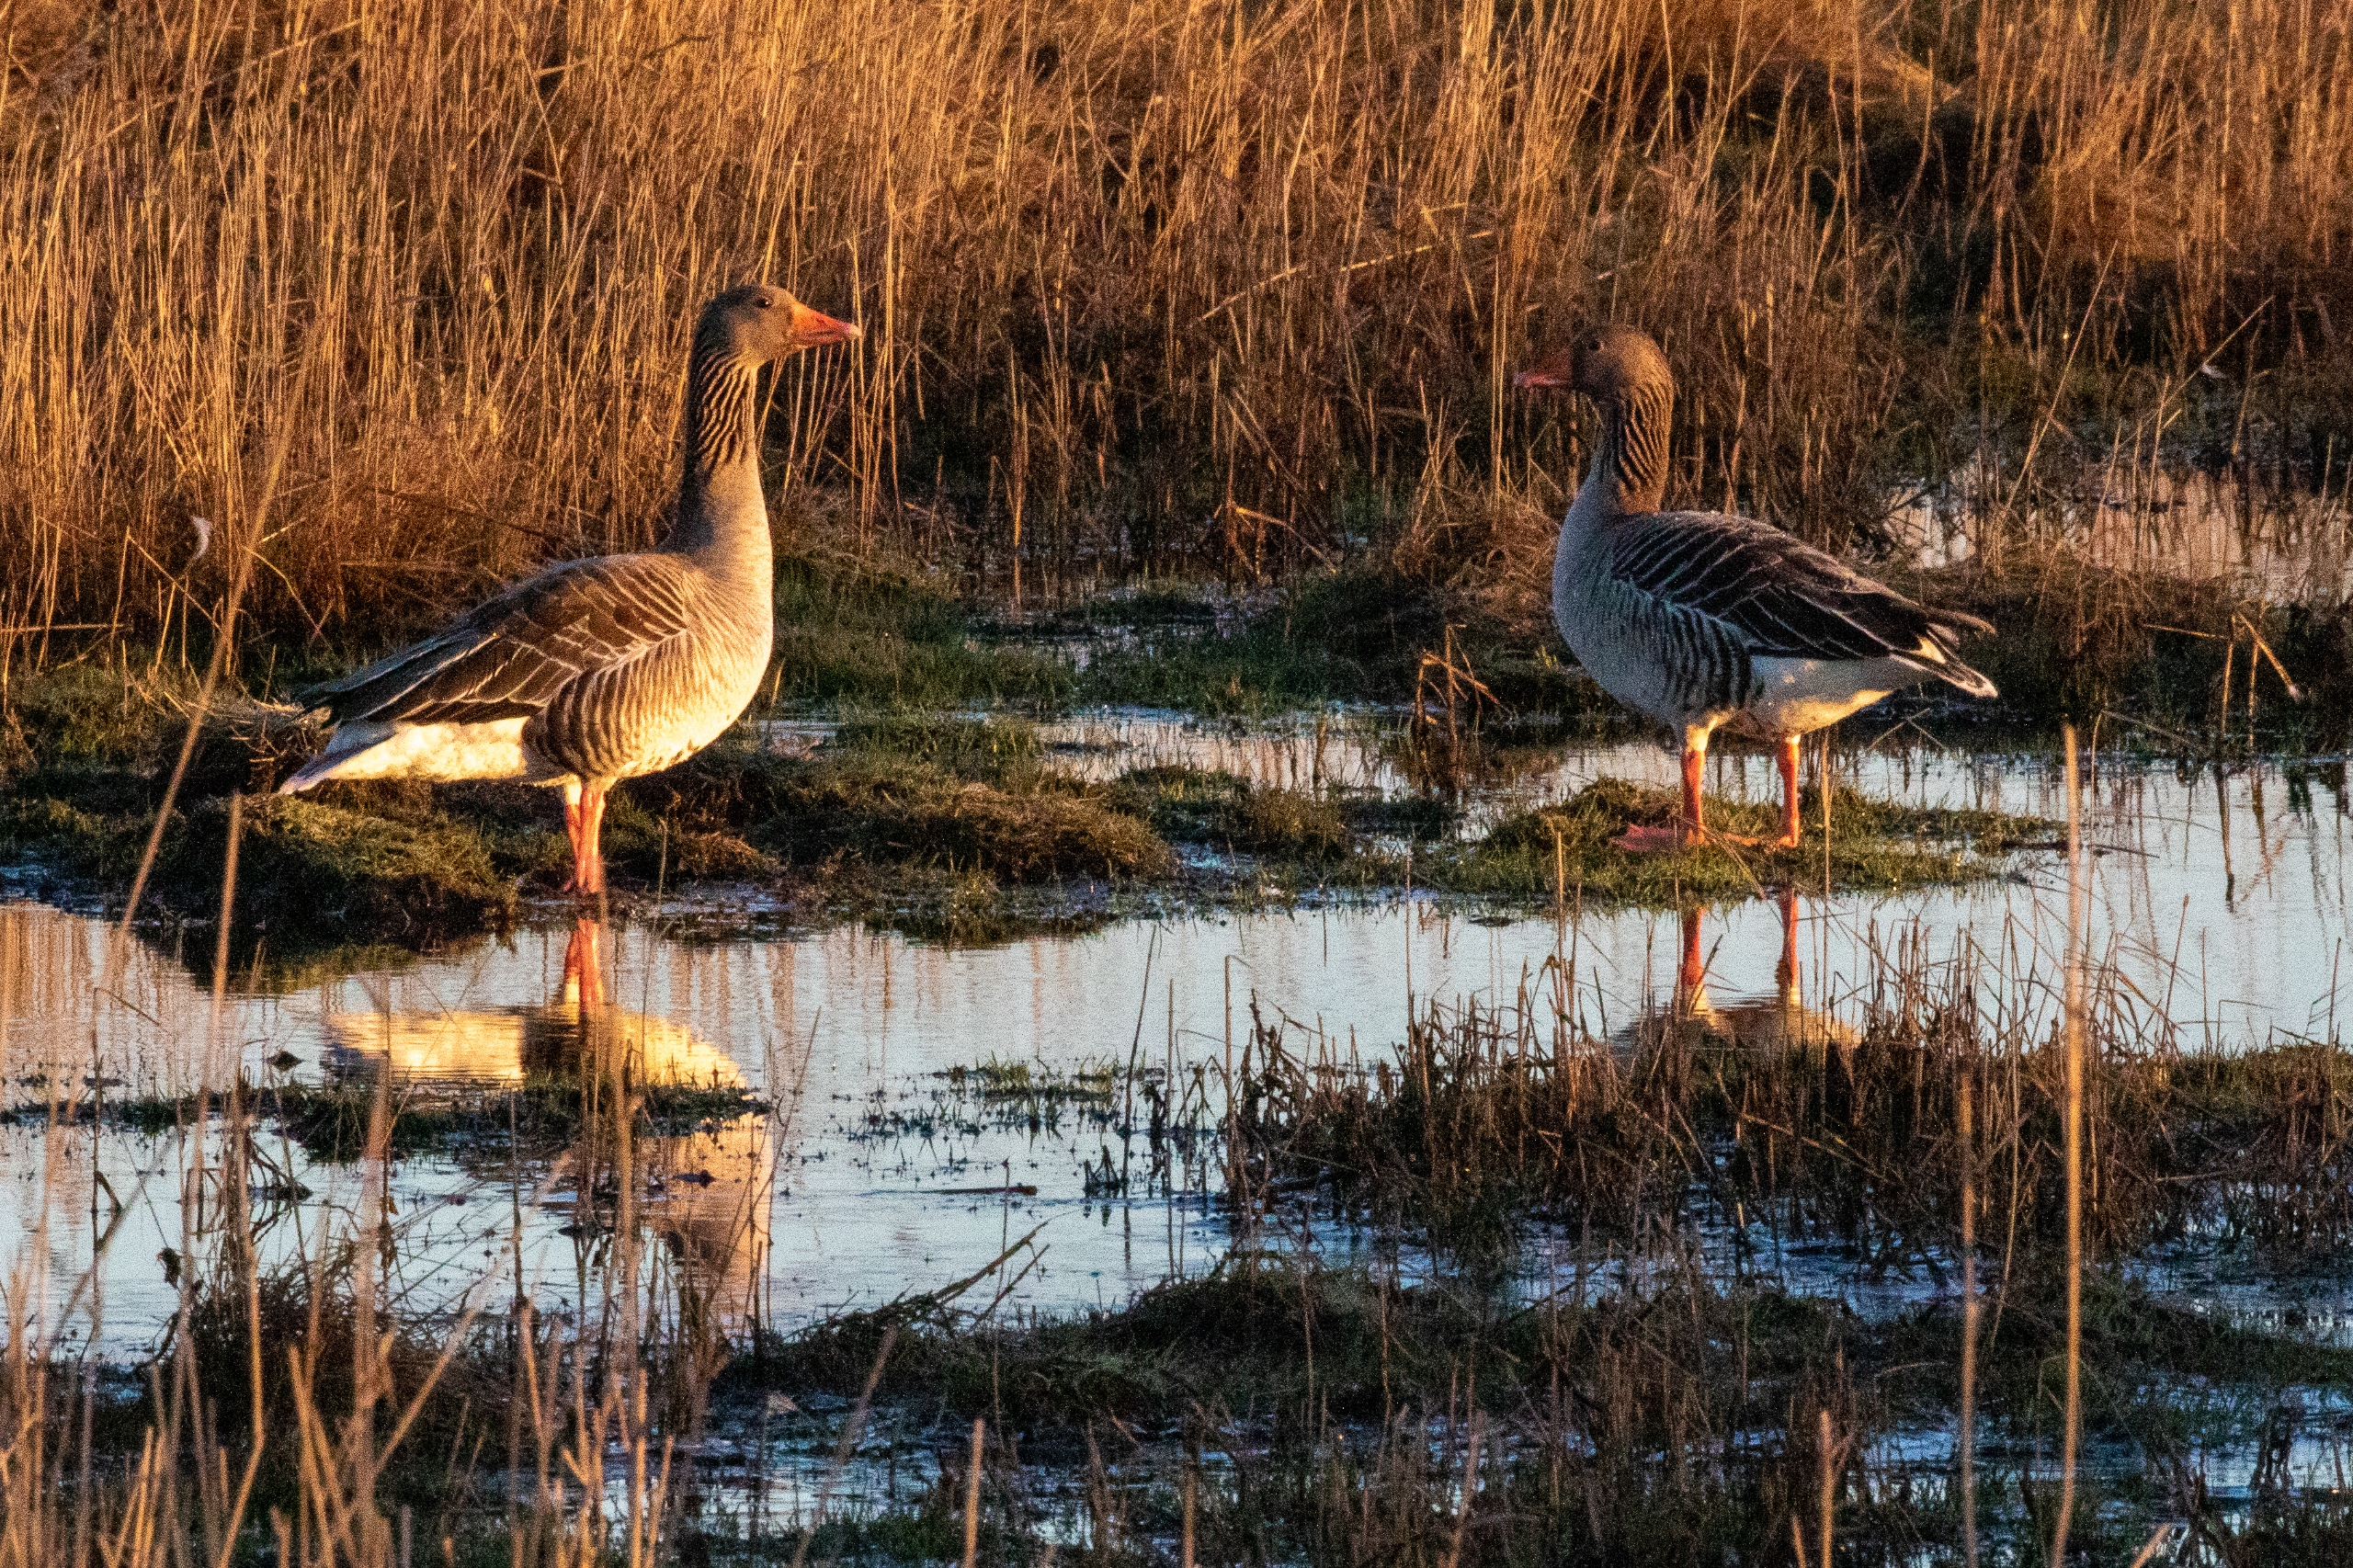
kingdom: Animalia
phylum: Chordata
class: Aves
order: Anseriformes
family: Anatidae
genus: Anser
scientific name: Anser anser
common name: Grågås
